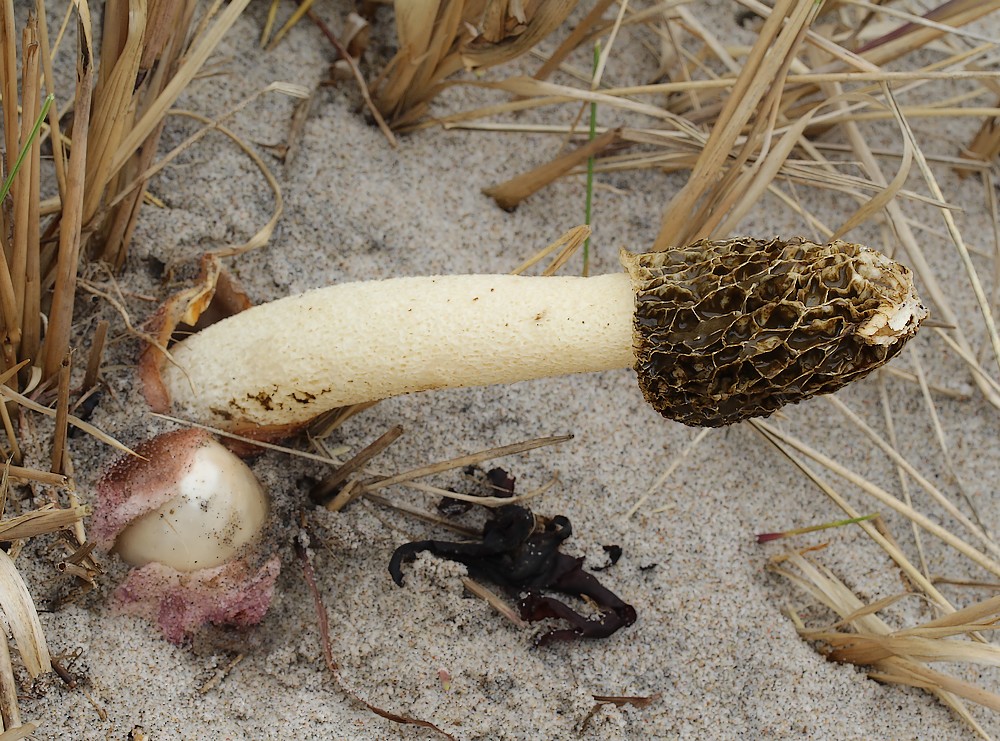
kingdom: Fungi
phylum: Basidiomycota
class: Agaricomycetes
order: Phallales
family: Phallaceae
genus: Phallus
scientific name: Phallus hadriani
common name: sand-stinksvamp
